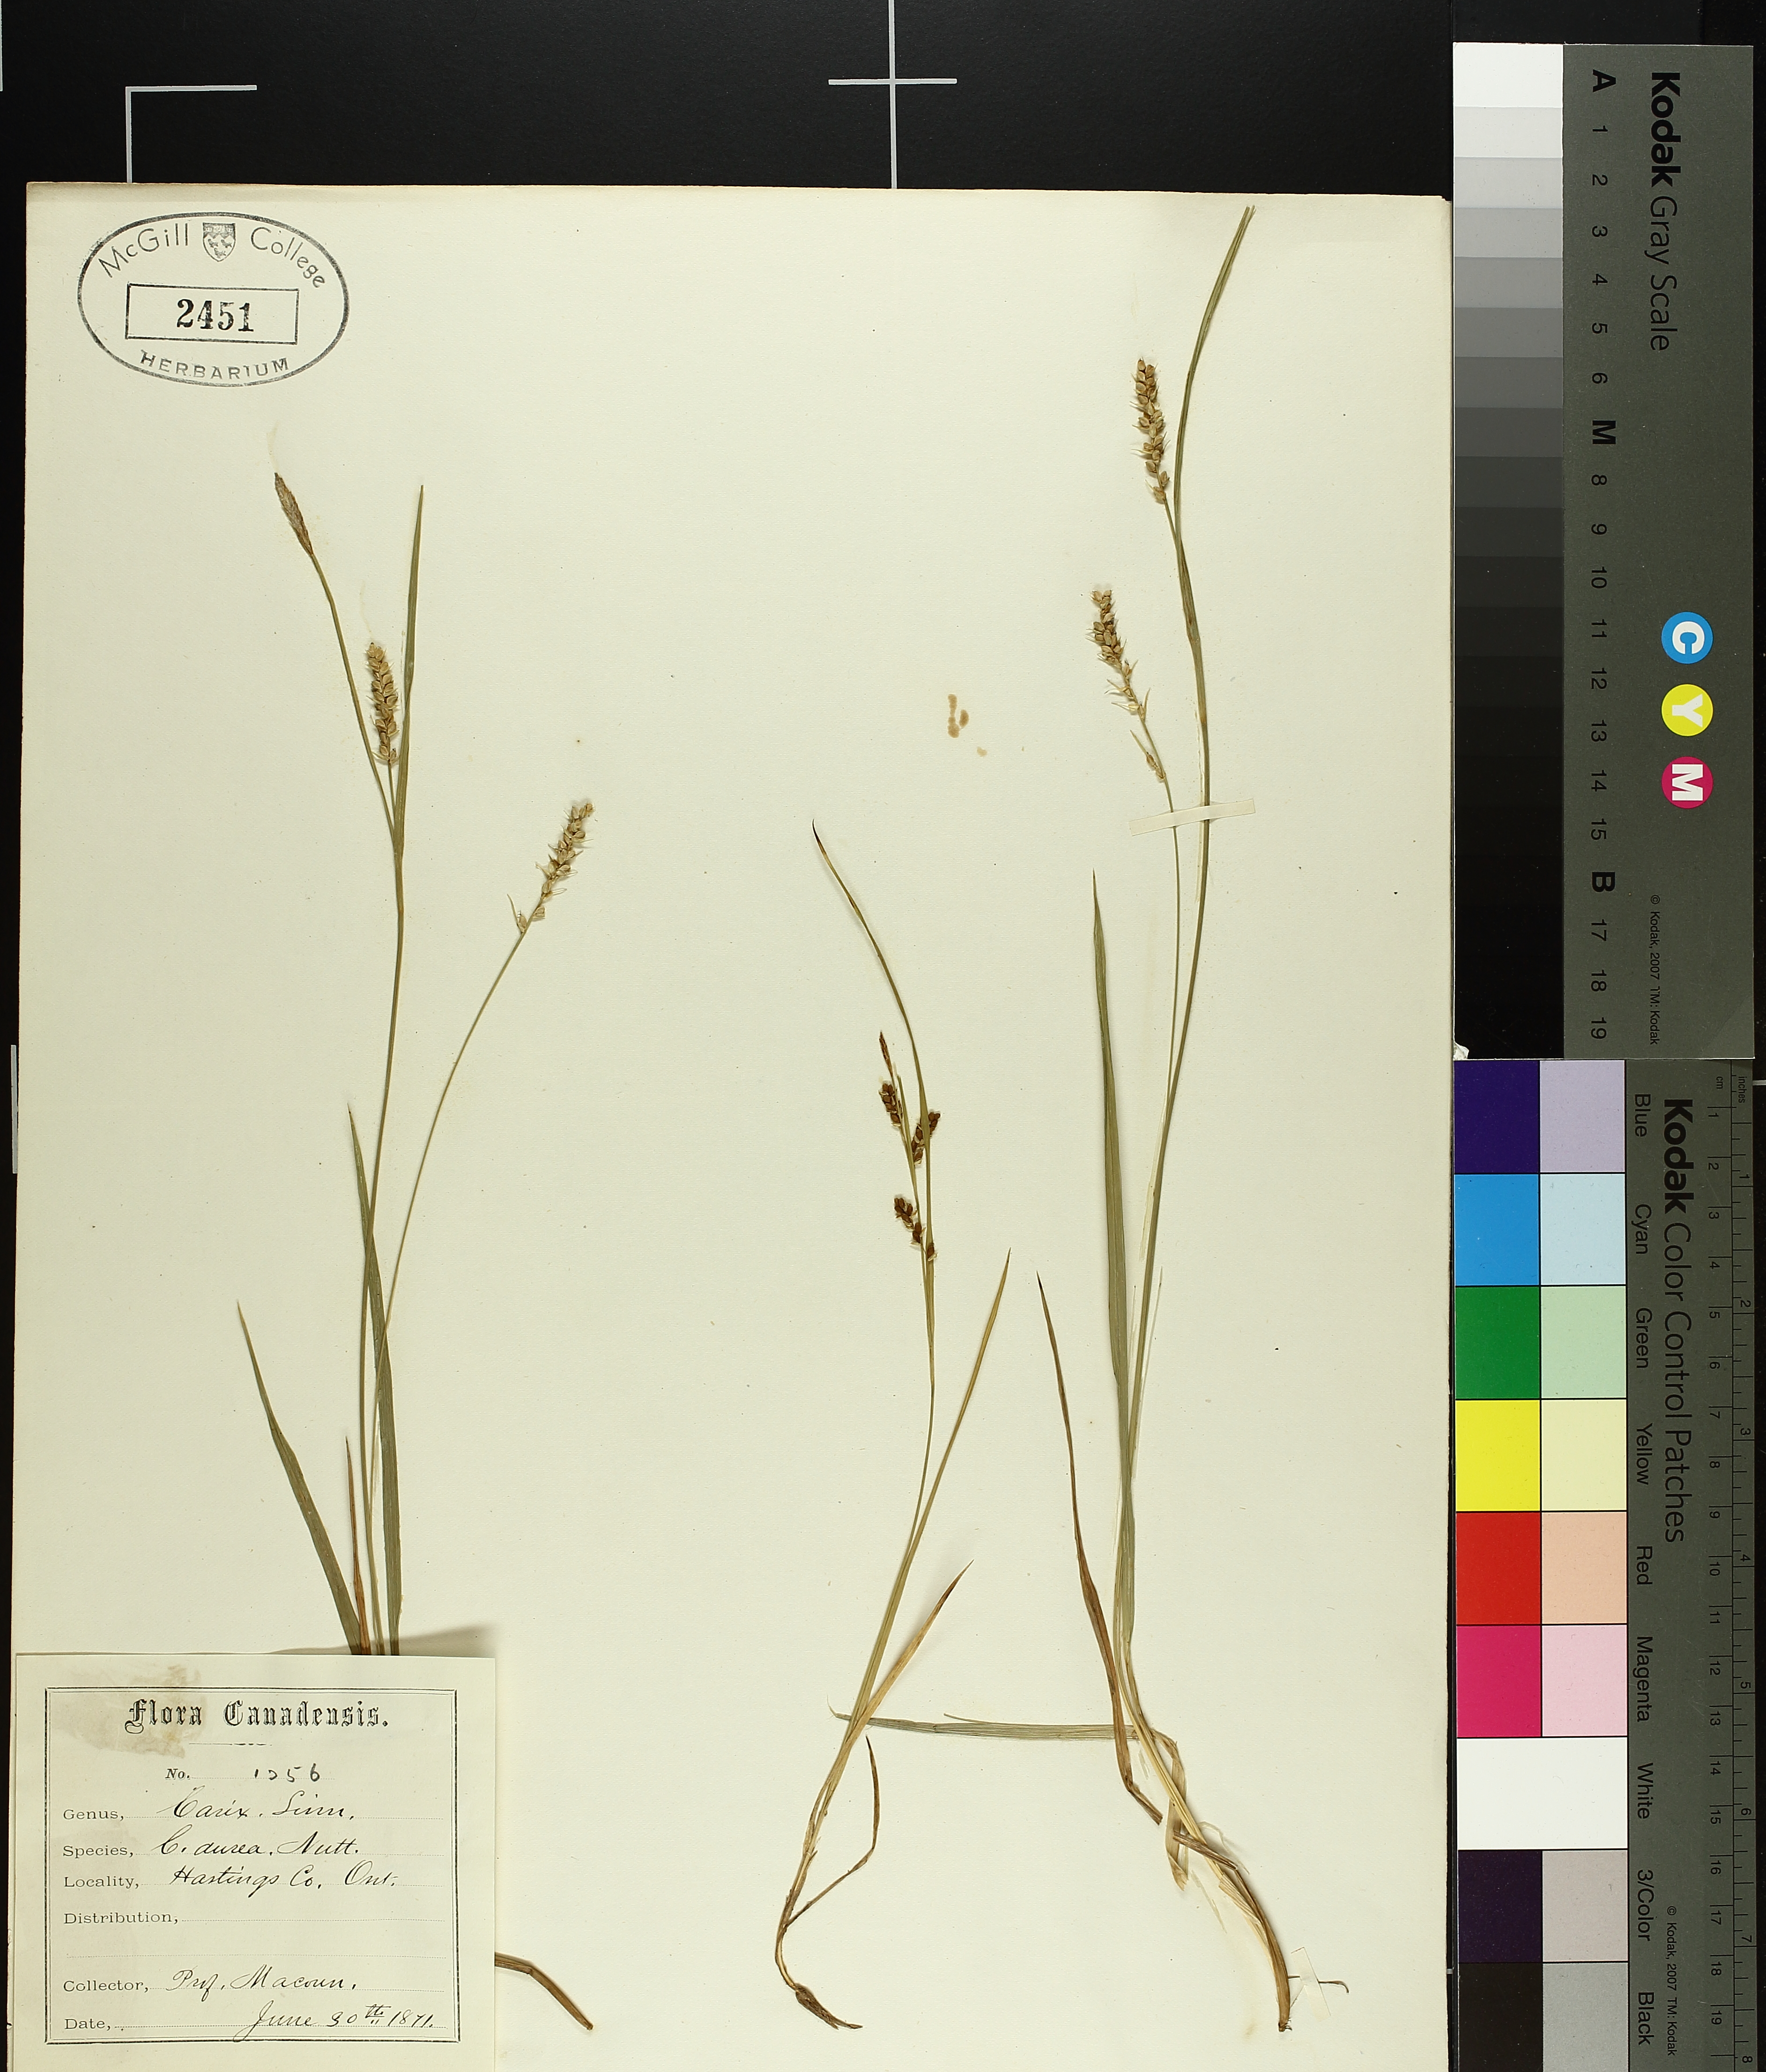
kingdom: Plantae
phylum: Tracheophyta
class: Liliopsida
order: Poales
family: Cyperaceae
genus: Carex
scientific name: Carex aurea
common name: Golden sedge
